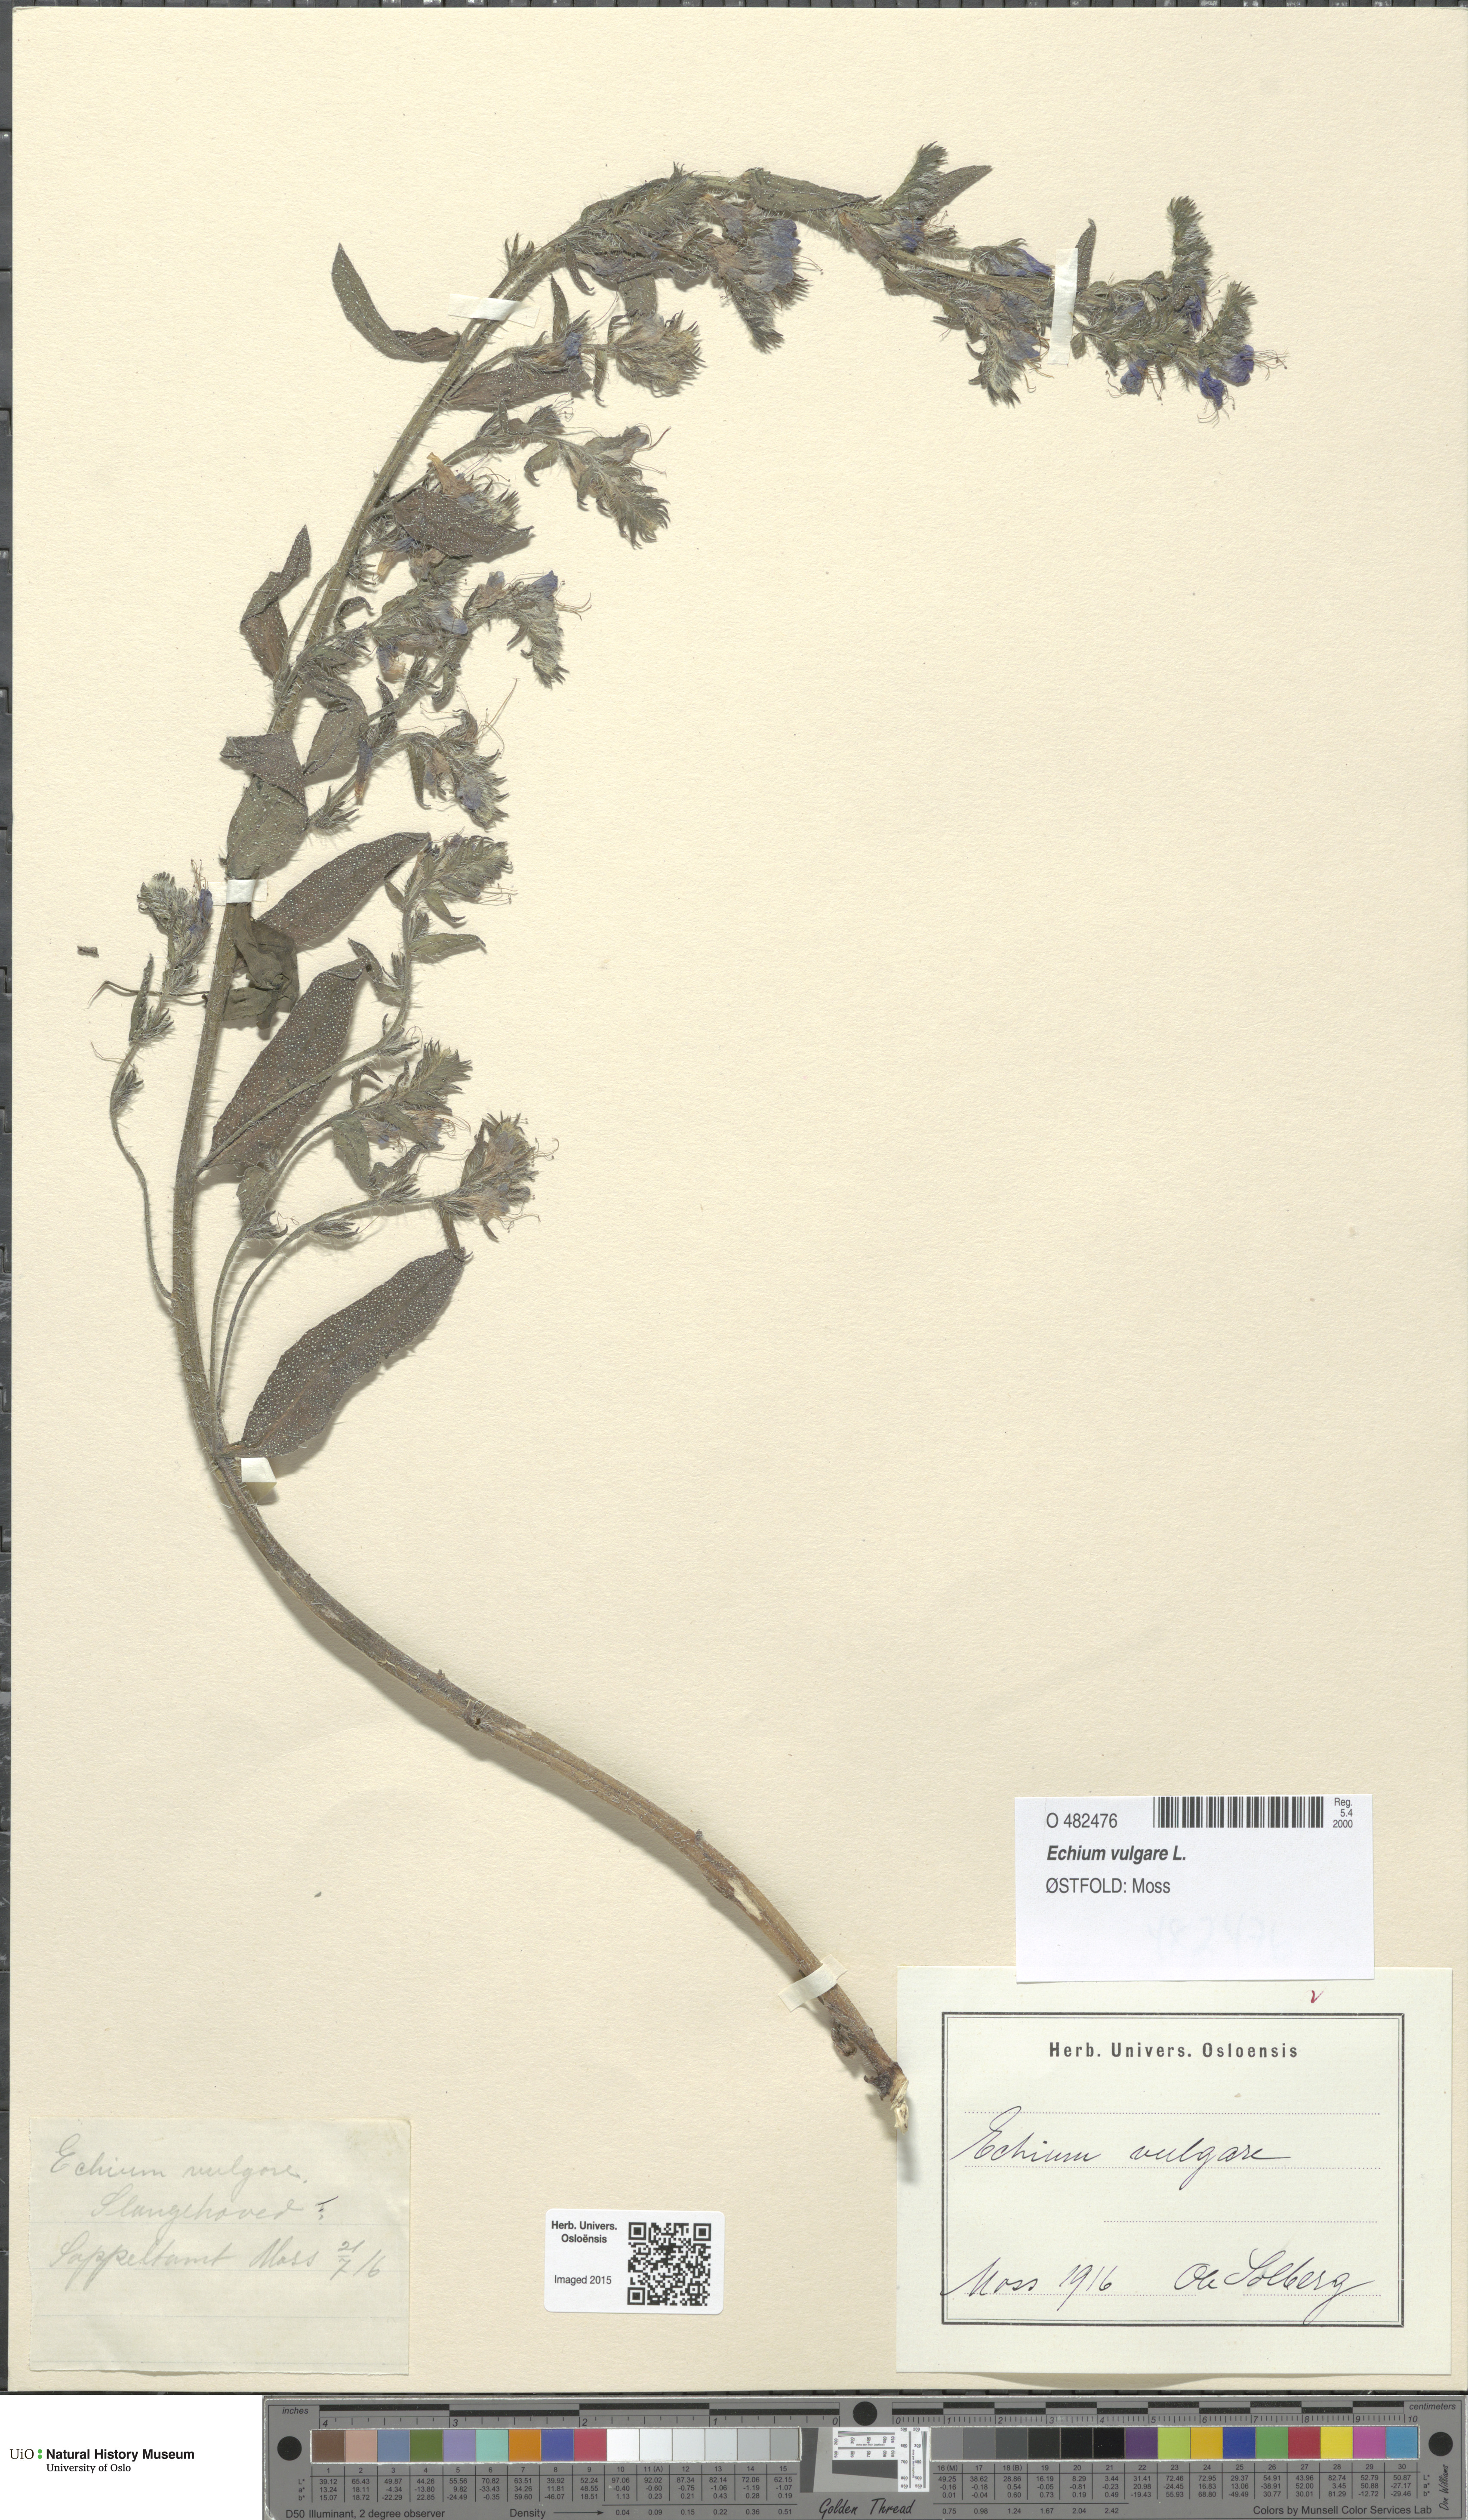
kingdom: Plantae
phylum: Tracheophyta
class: Magnoliopsida
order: Boraginales
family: Boraginaceae
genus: Echium
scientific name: Echium vulgare
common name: Common viper's bugloss
